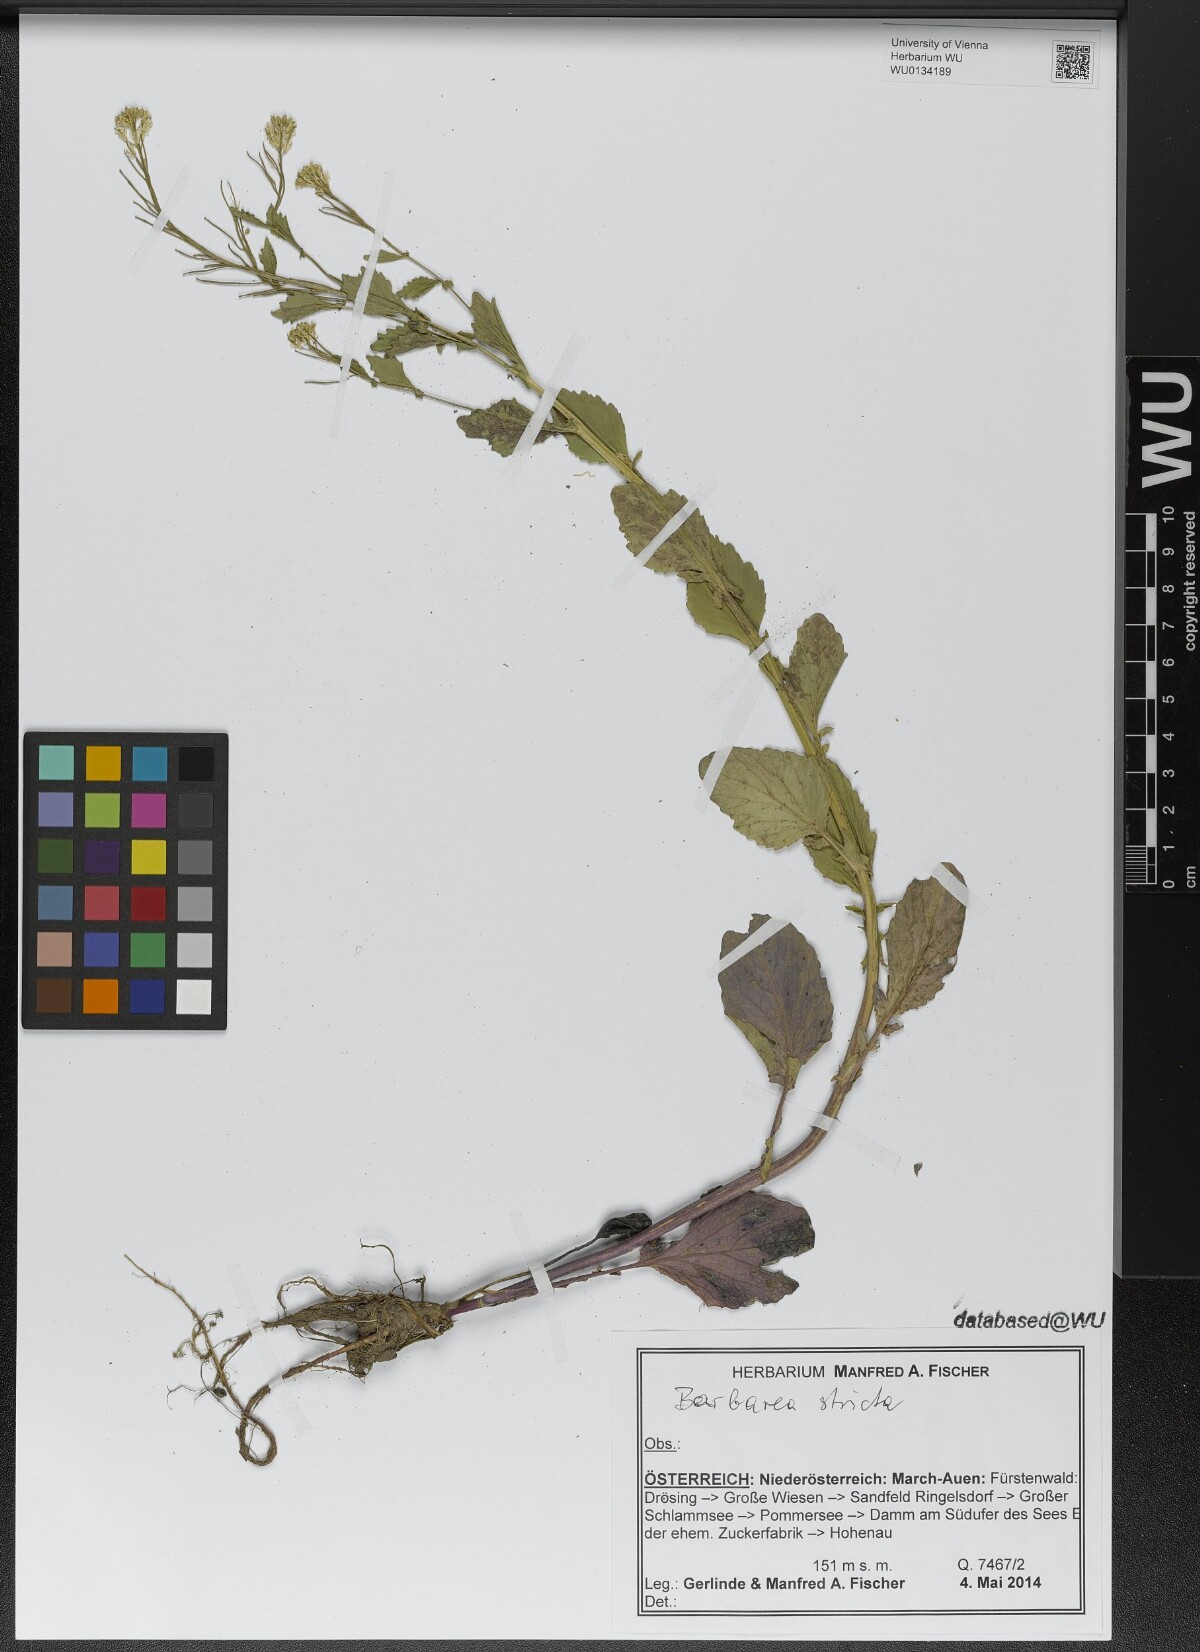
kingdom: Plantae
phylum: Tracheophyta
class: Magnoliopsida
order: Brassicales
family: Brassicaceae
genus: Barbarea
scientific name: Barbarea stricta
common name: Small-flowered winter-cress
